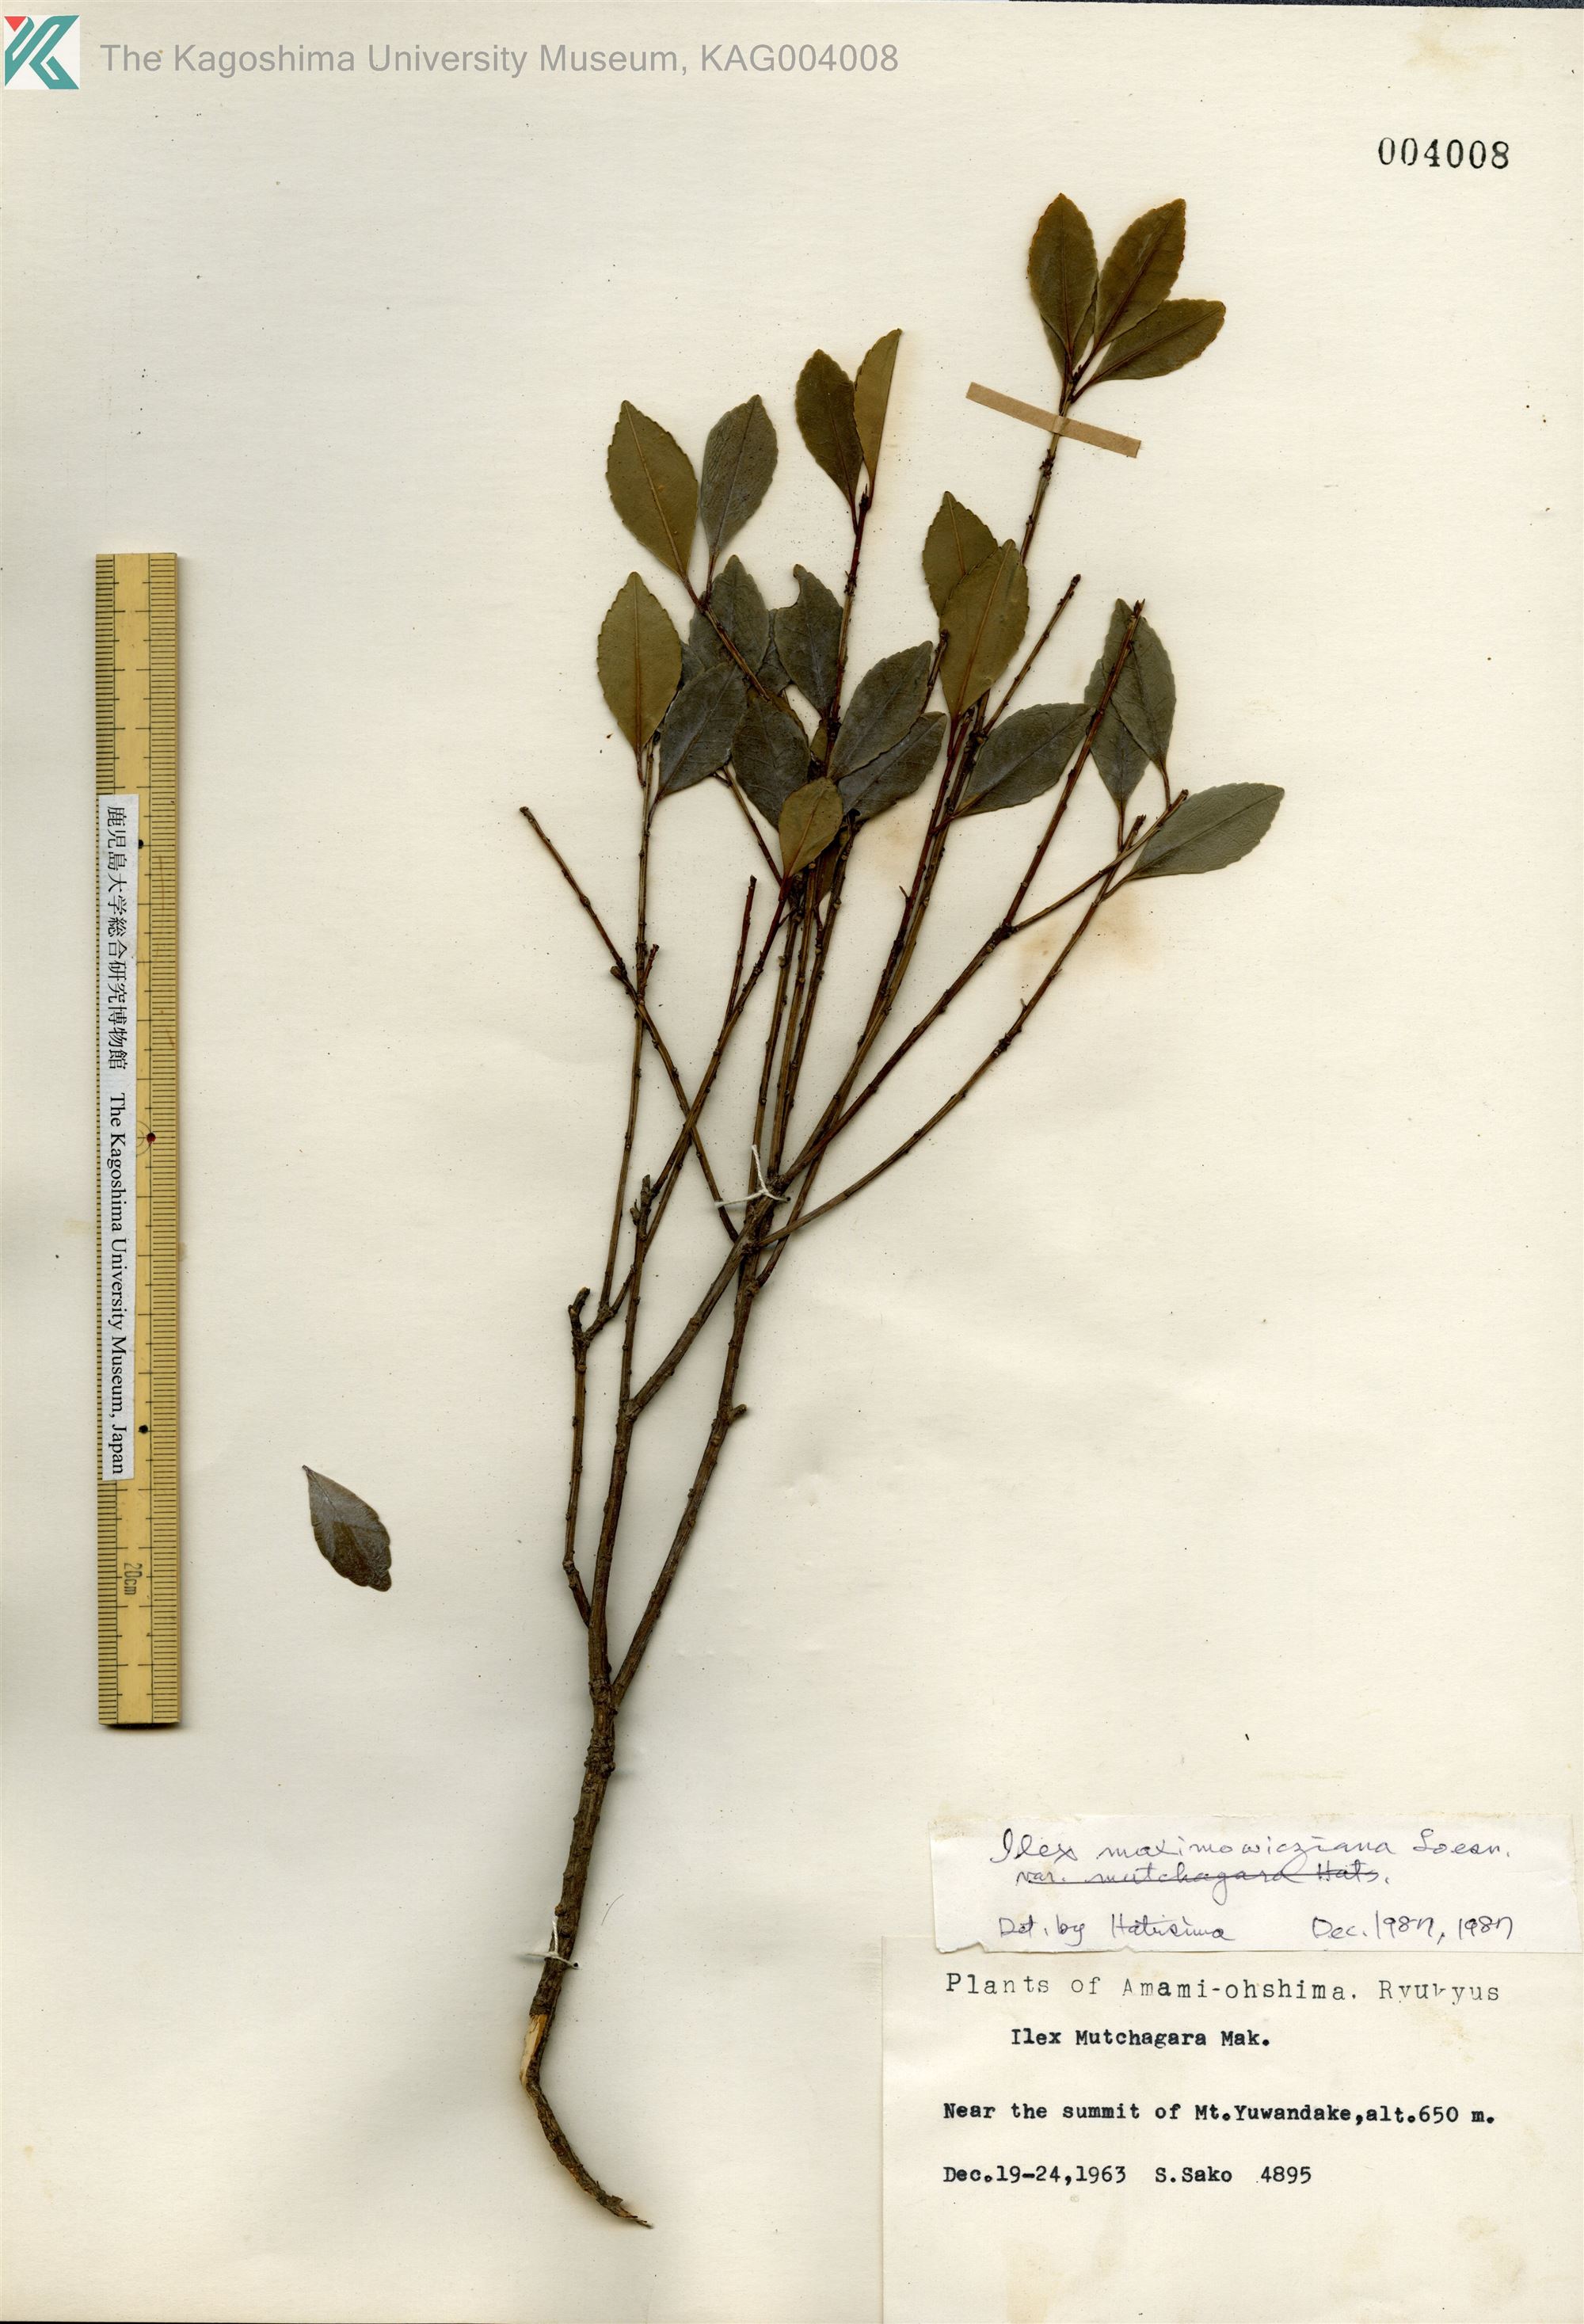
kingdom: Plantae
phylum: Tracheophyta
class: Magnoliopsida
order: Aquifoliales
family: Aquifoliaceae
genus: Ilex
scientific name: Ilex maximowicziana
